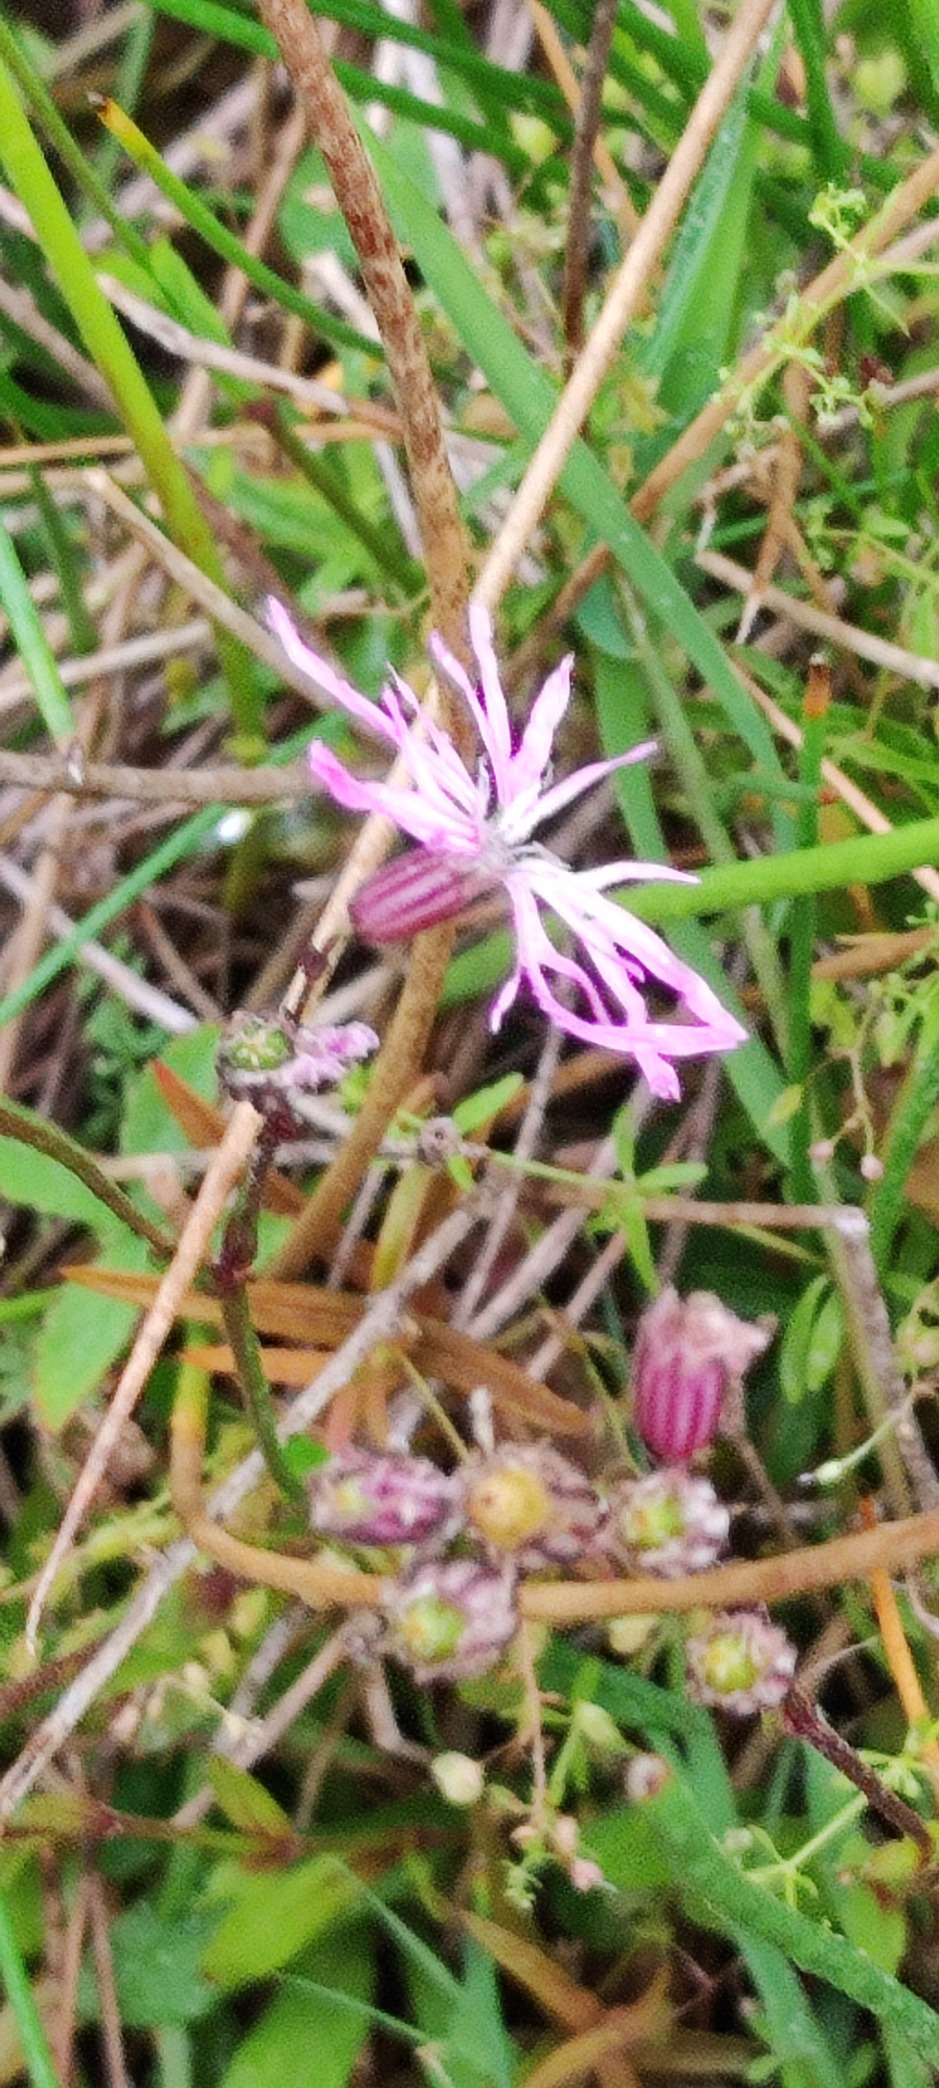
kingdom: Plantae
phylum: Tracheophyta
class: Magnoliopsida
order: Caryophyllales
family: Caryophyllaceae
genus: Silene
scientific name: Silene flos-cuculi
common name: Trævlekrone
